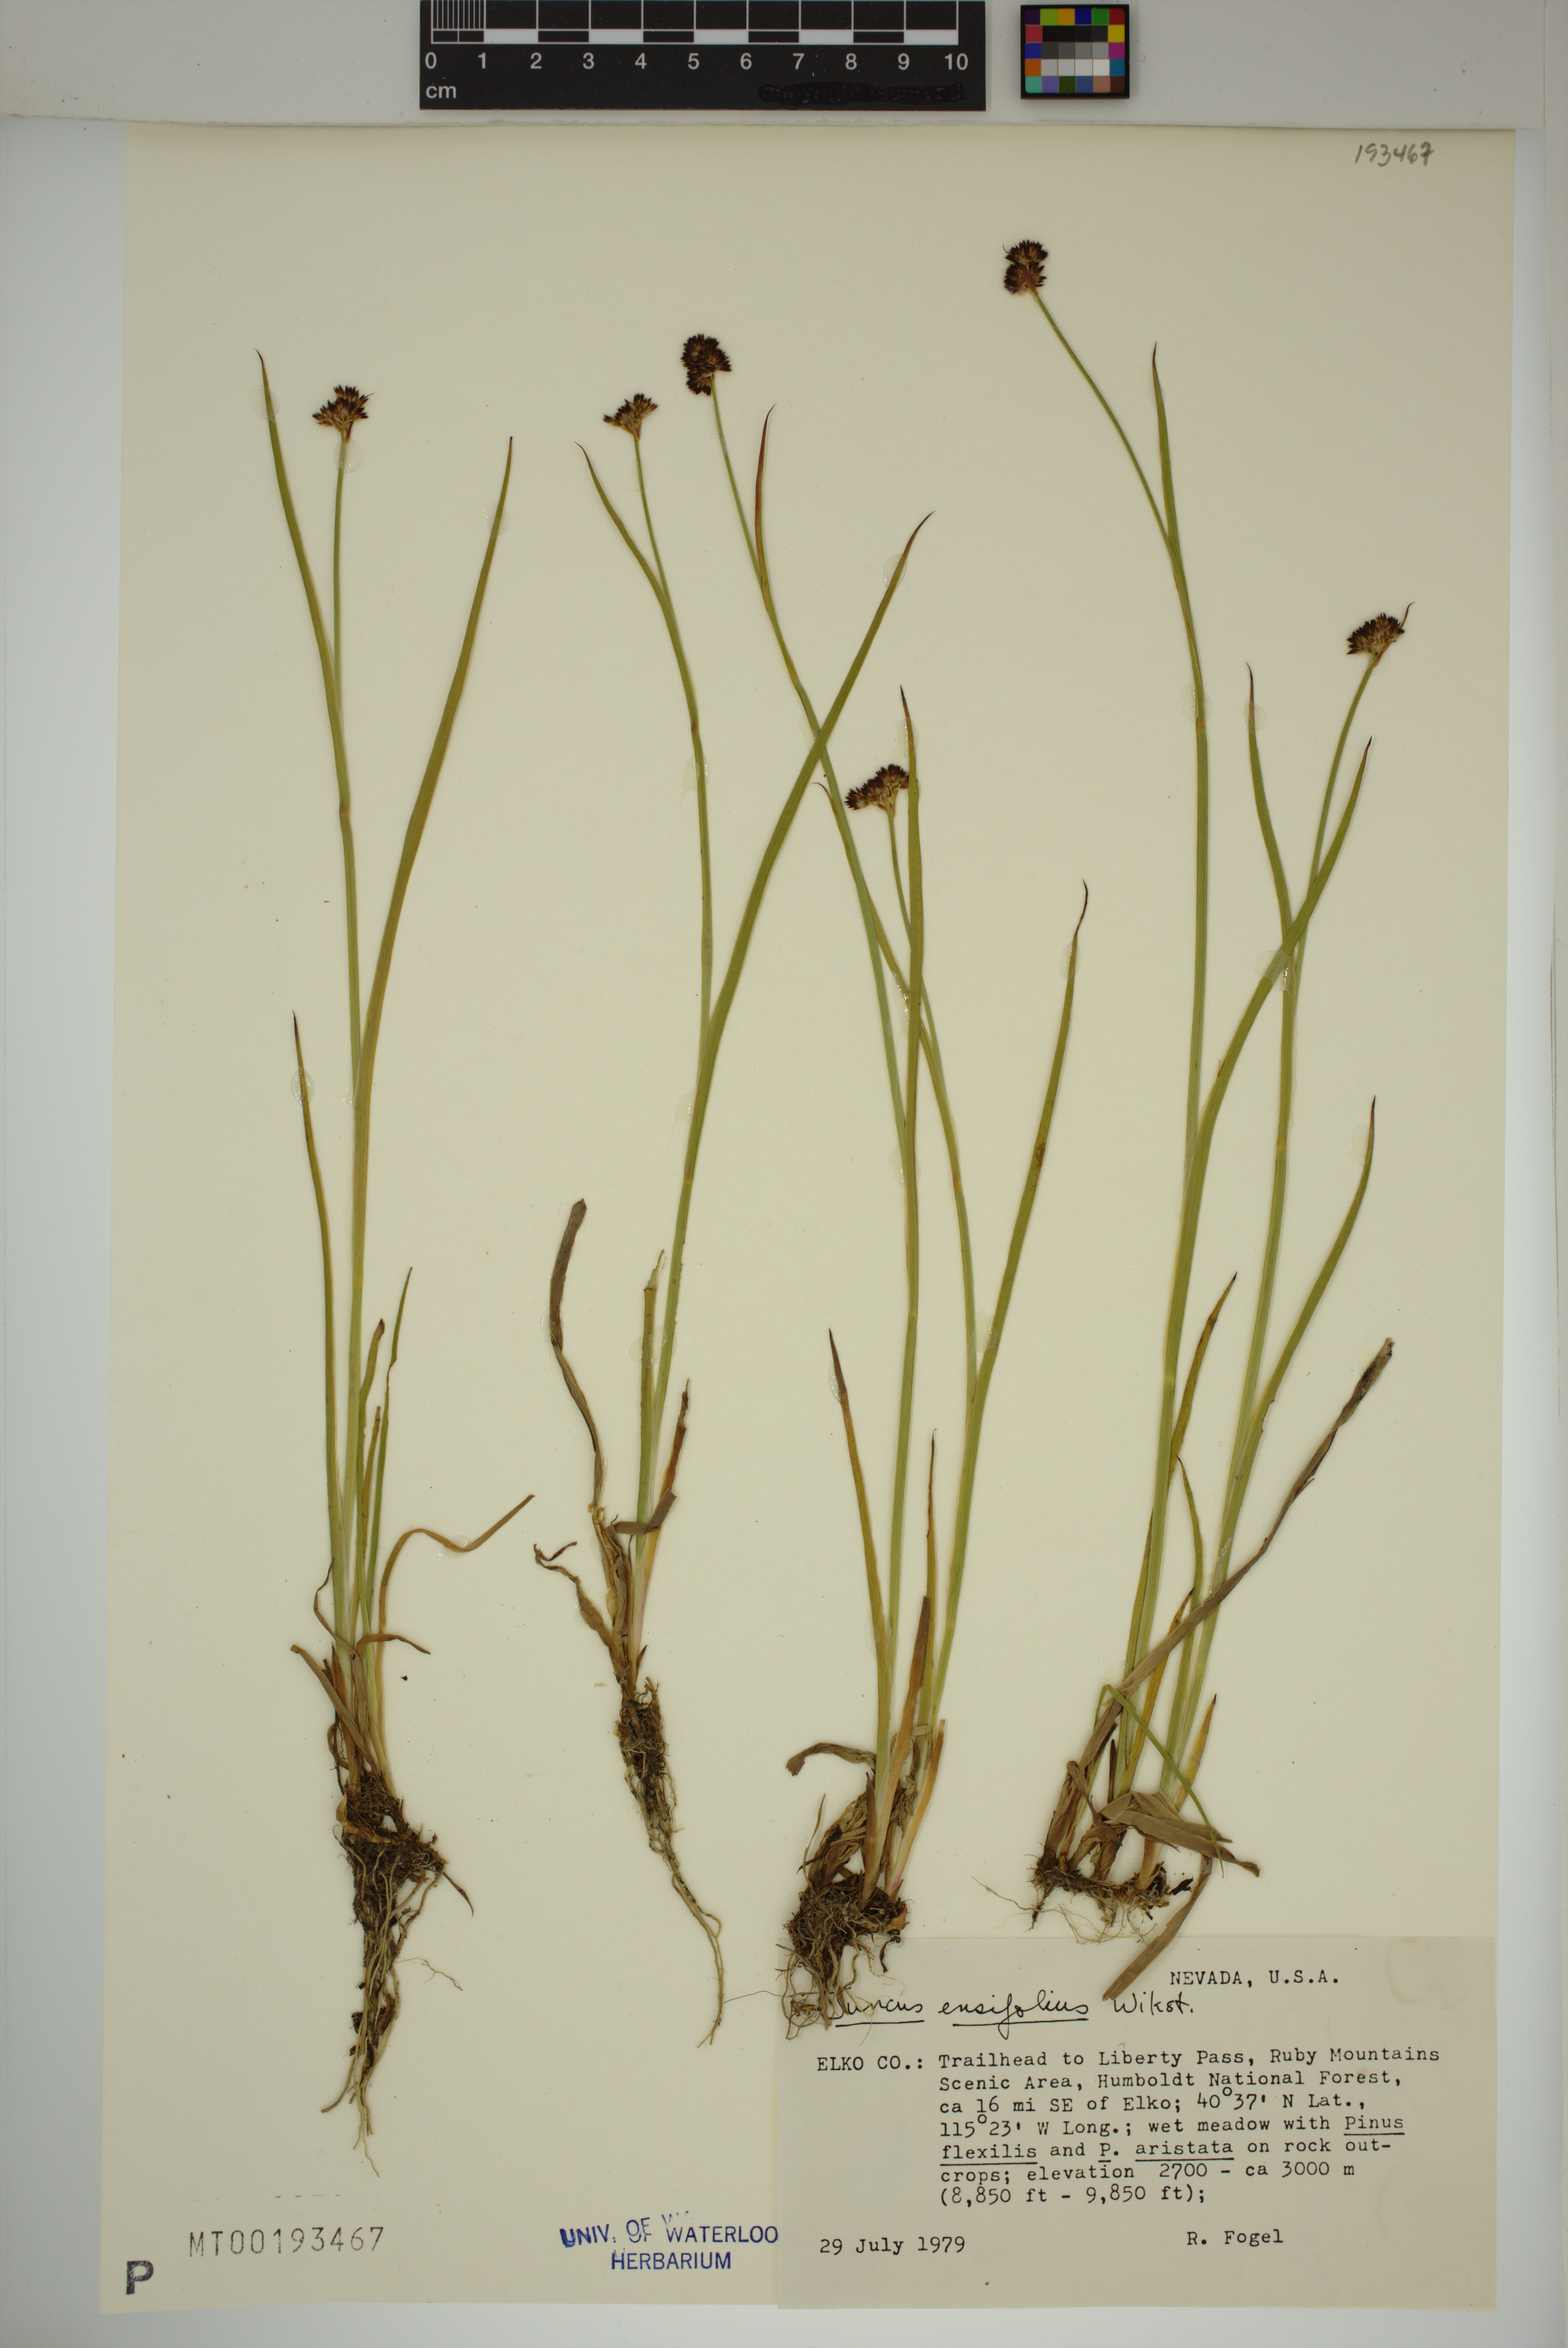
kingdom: Plantae
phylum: Tracheophyta
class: Liliopsida
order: Poales
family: Juncaceae
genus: Juncus
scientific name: Juncus ensifolius
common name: Sword-leaved rush
